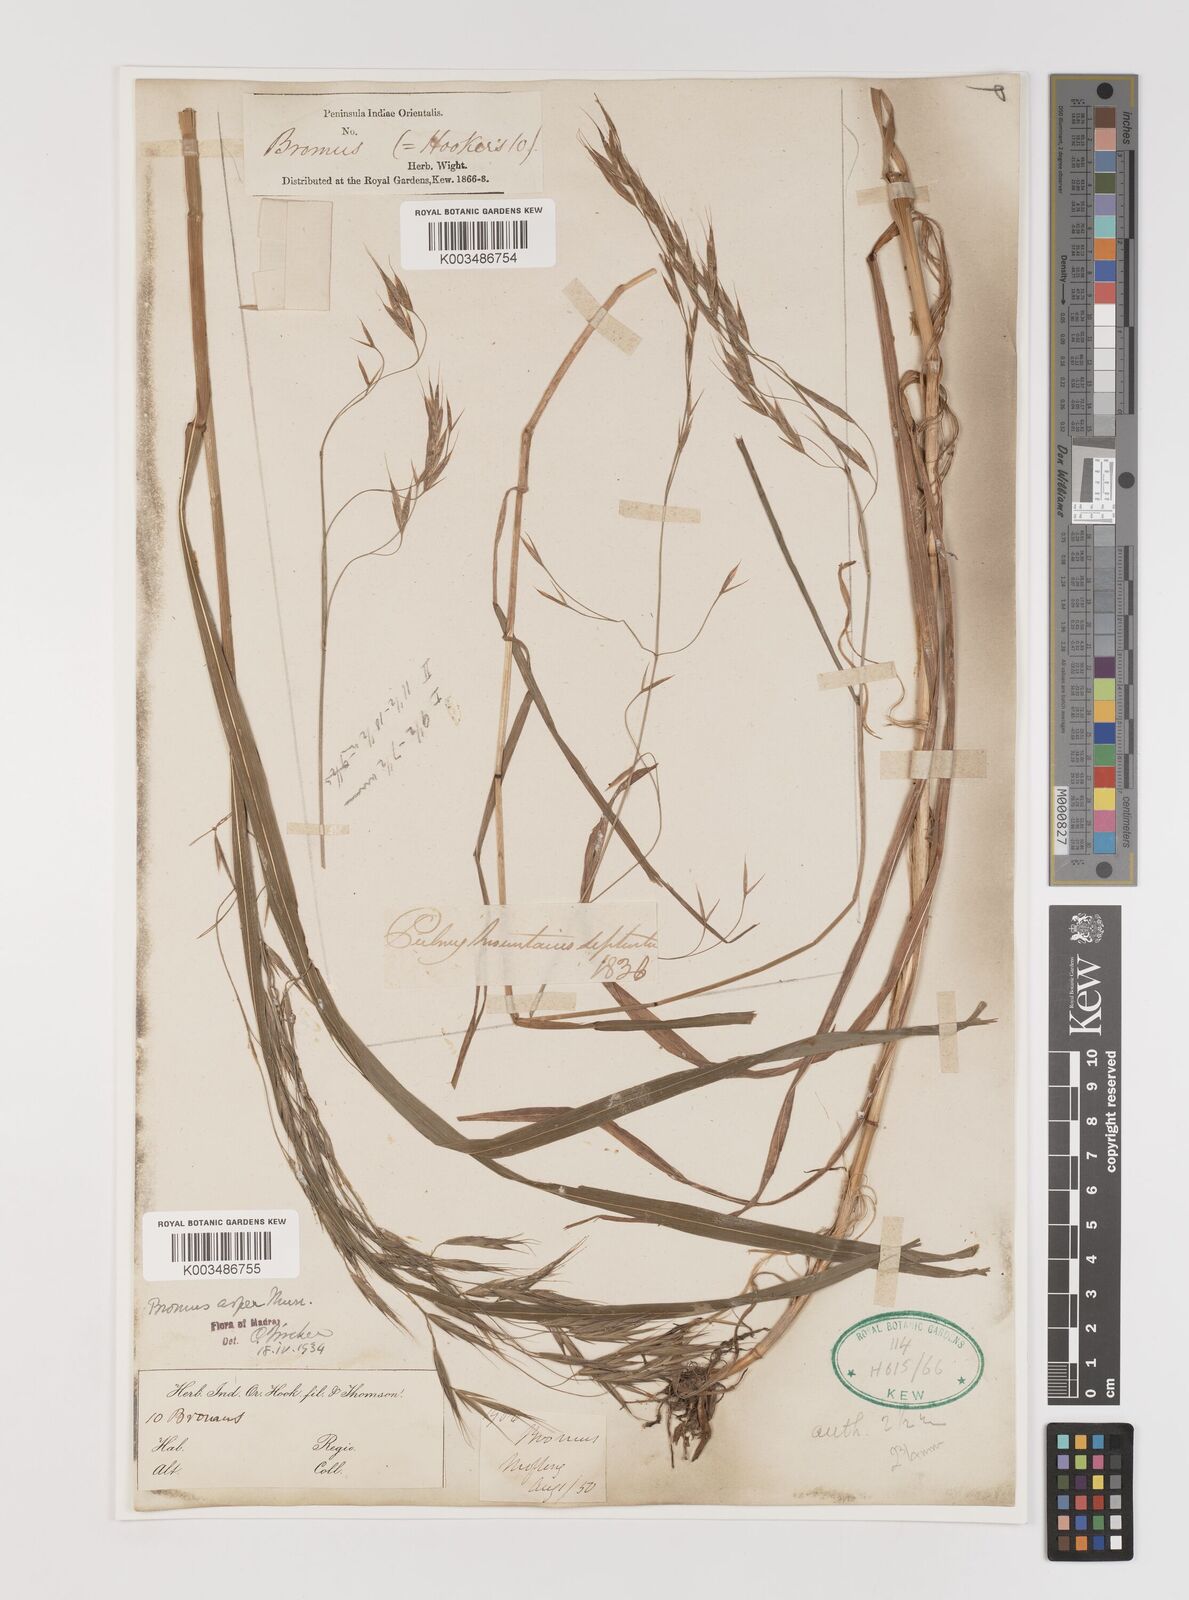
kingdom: Plantae
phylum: Tracheophyta
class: Liliopsida
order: Poales
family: Poaceae
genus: Brachypodium
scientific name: Brachypodium retusum
